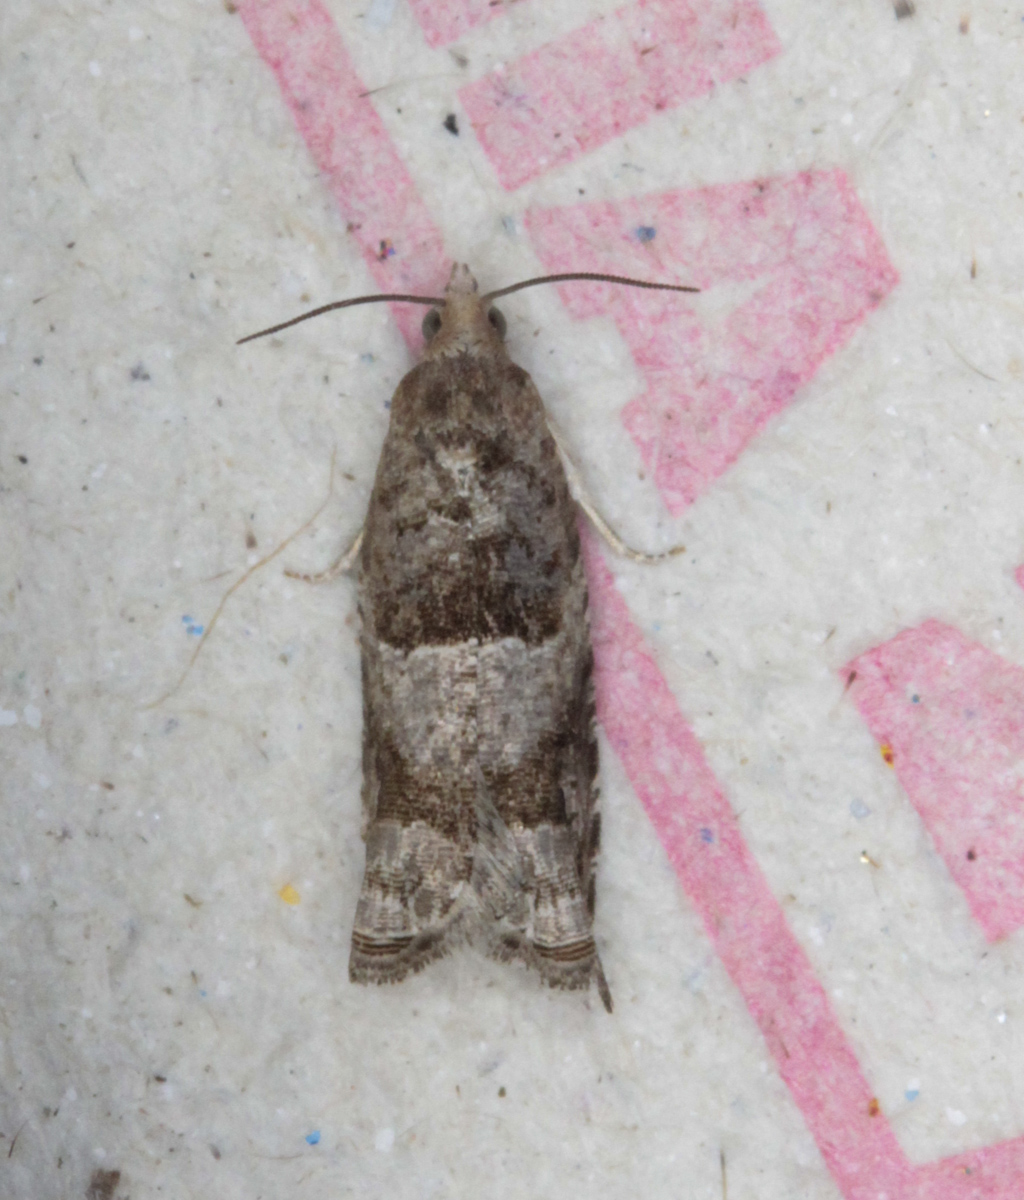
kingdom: Animalia
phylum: Arthropoda
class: Insecta
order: Lepidoptera
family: Tortricidae
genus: Rhopobota
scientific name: Rhopobota naevana
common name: Blackheaded fireworm, holly tortrix
